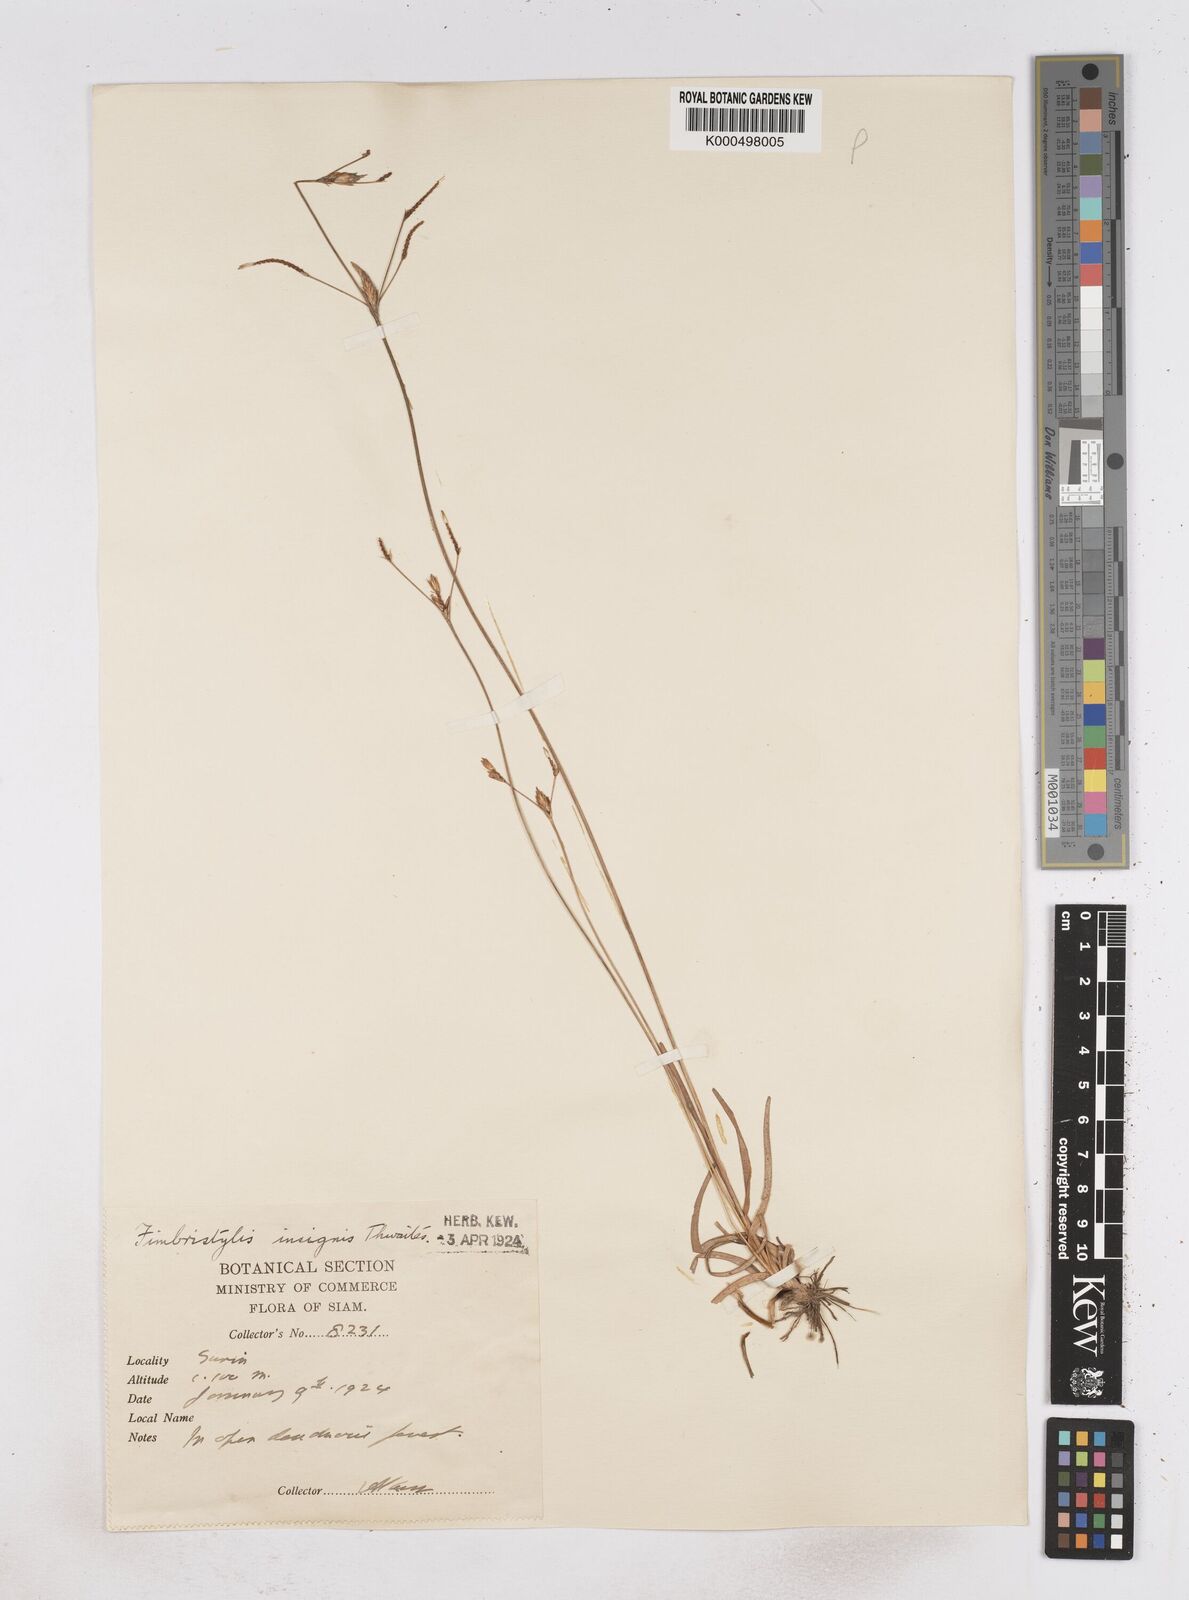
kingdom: Plantae
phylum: Tracheophyta
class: Liliopsida
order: Poales
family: Cyperaceae
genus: Fimbristylis
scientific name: Fimbristylis insignis
